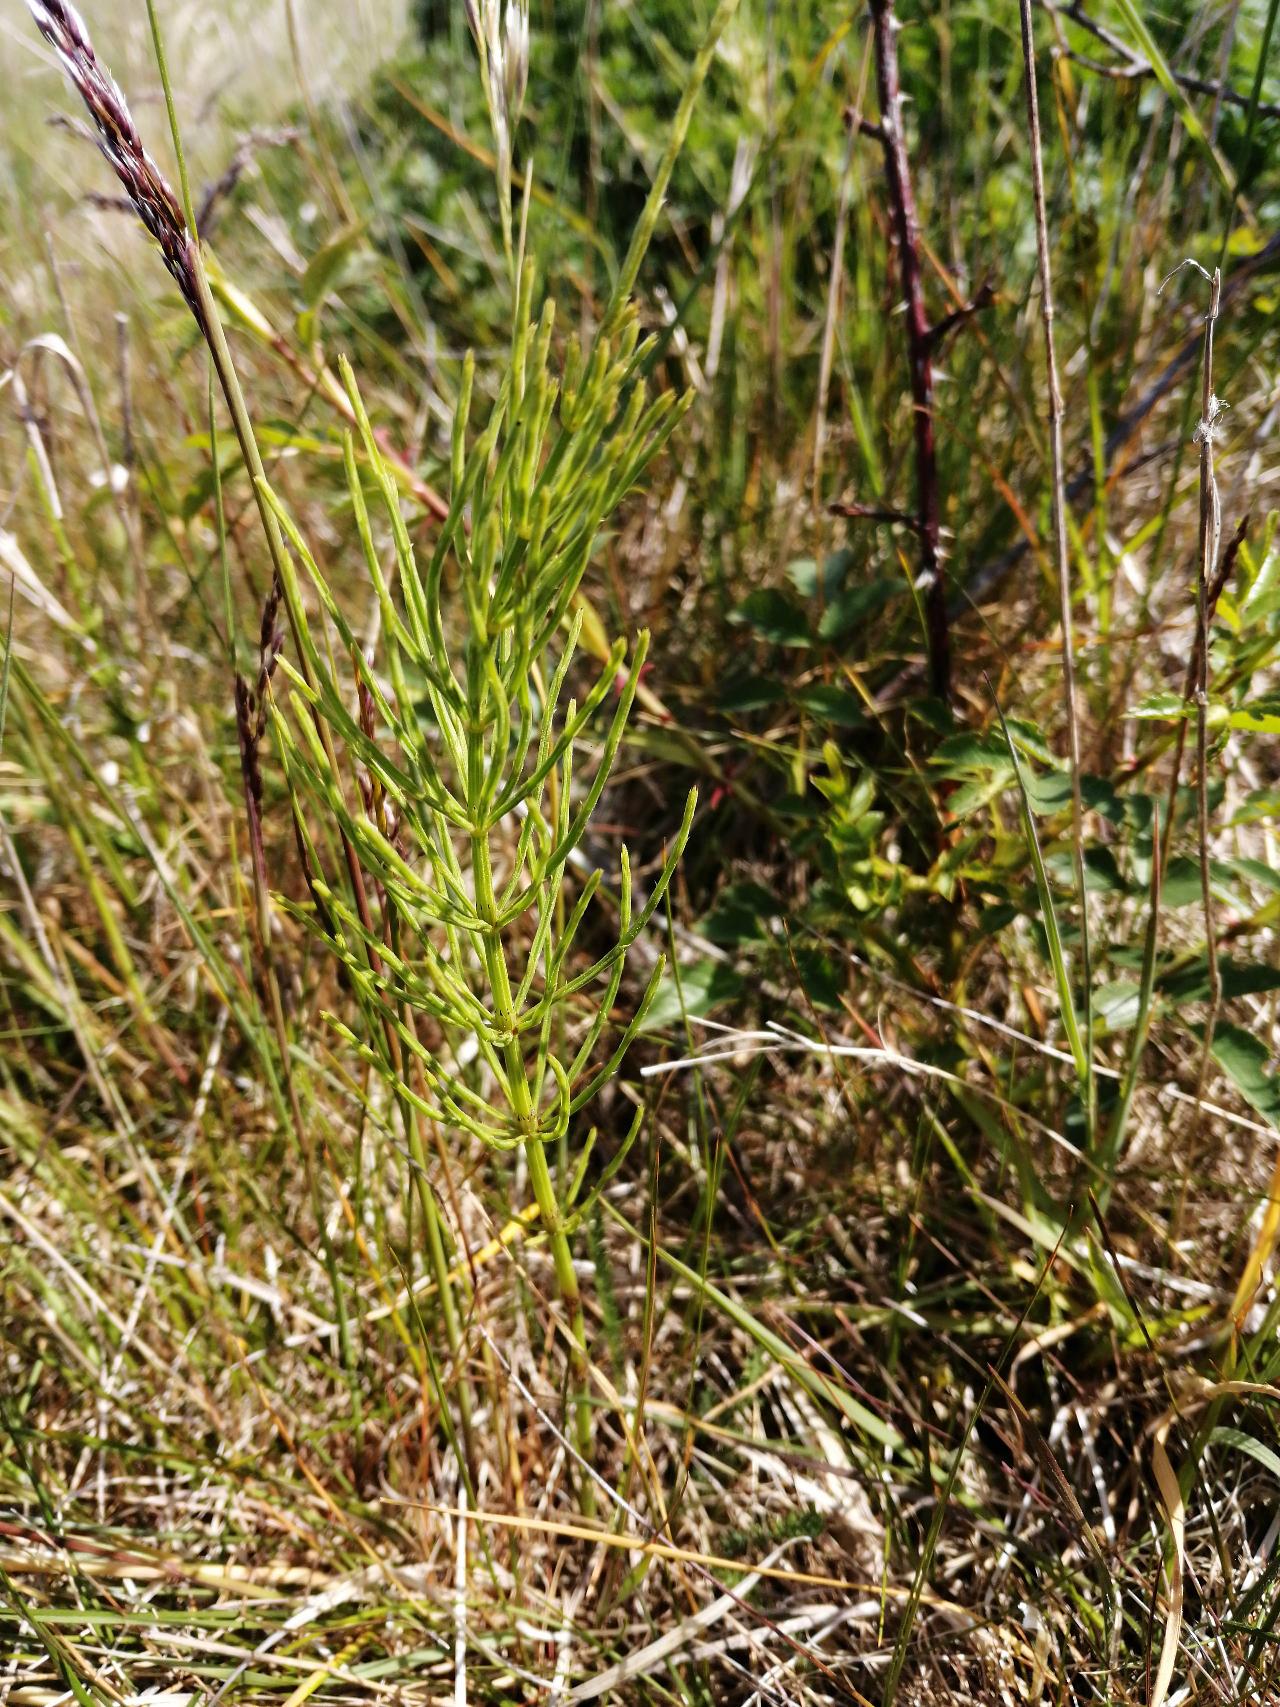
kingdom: Plantae
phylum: Tracheophyta
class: Polypodiopsida
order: Equisetales
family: Equisetaceae
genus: Equisetum
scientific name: Equisetum arvense
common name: Ager-padderok
